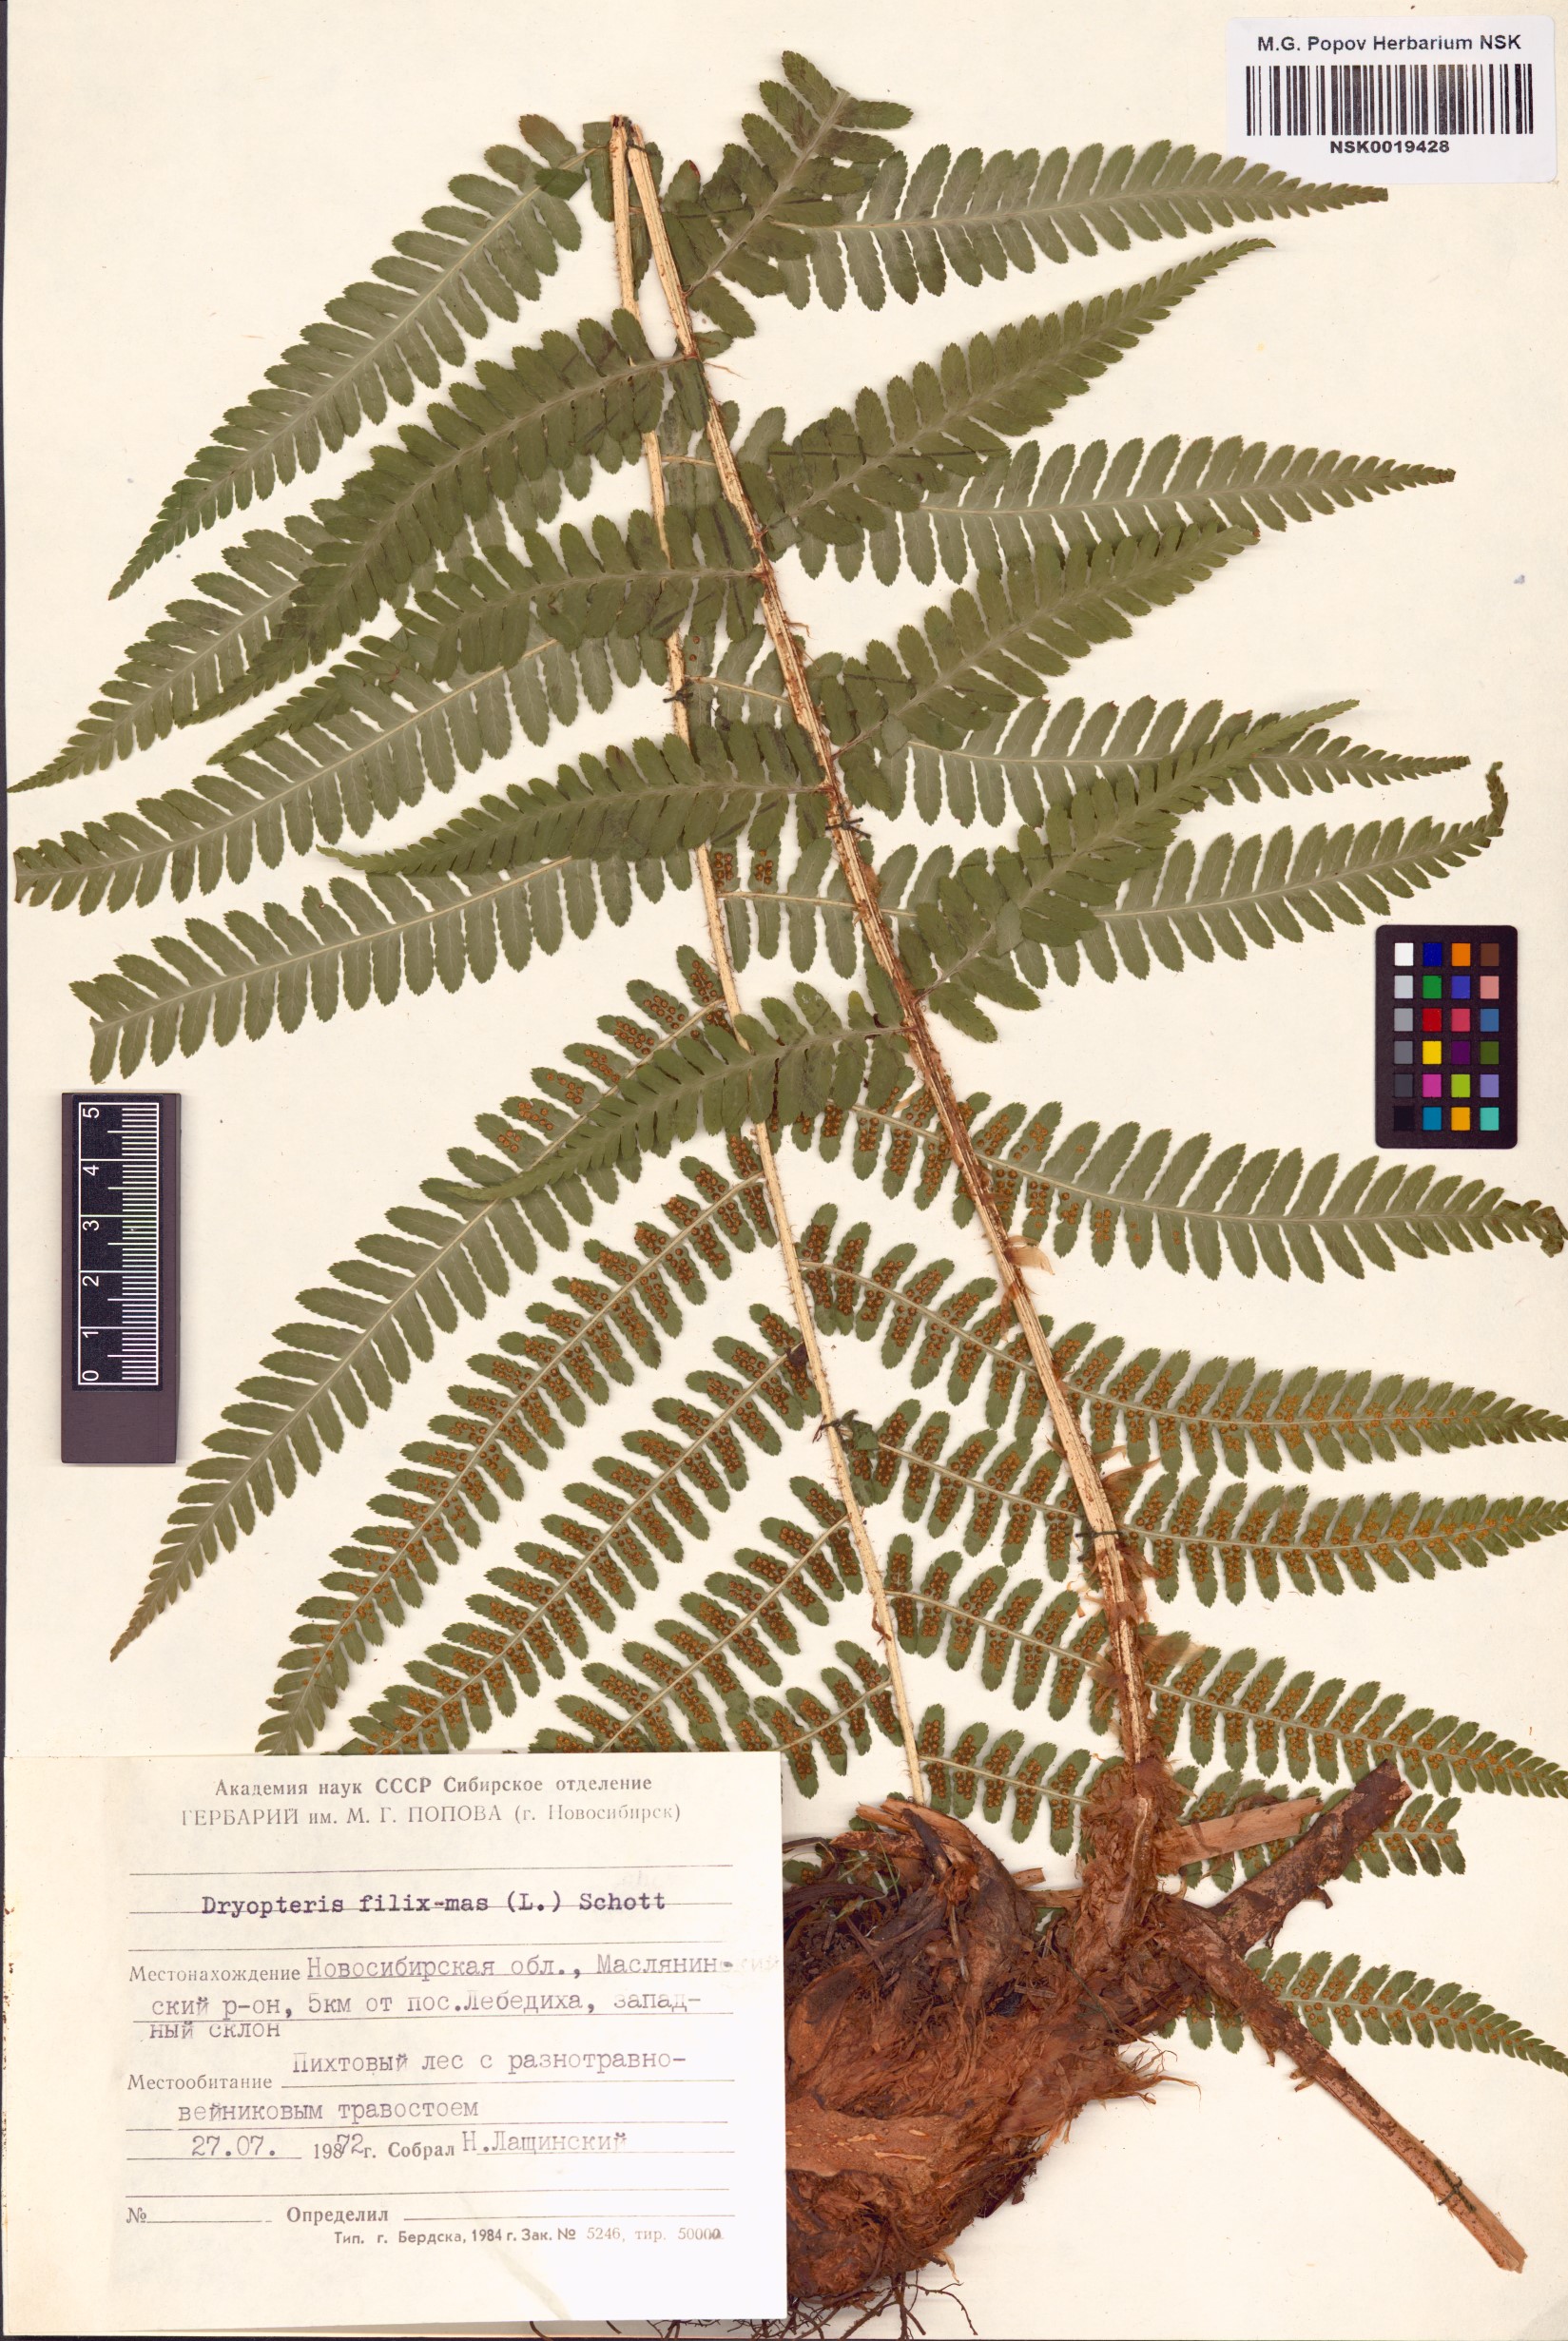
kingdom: Plantae
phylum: Tracheophyta
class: Polypodiopsida
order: Polypodiales
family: Dryopteridaceae
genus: Dryopteris
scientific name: Dryopteris filix-mas
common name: Male fern
